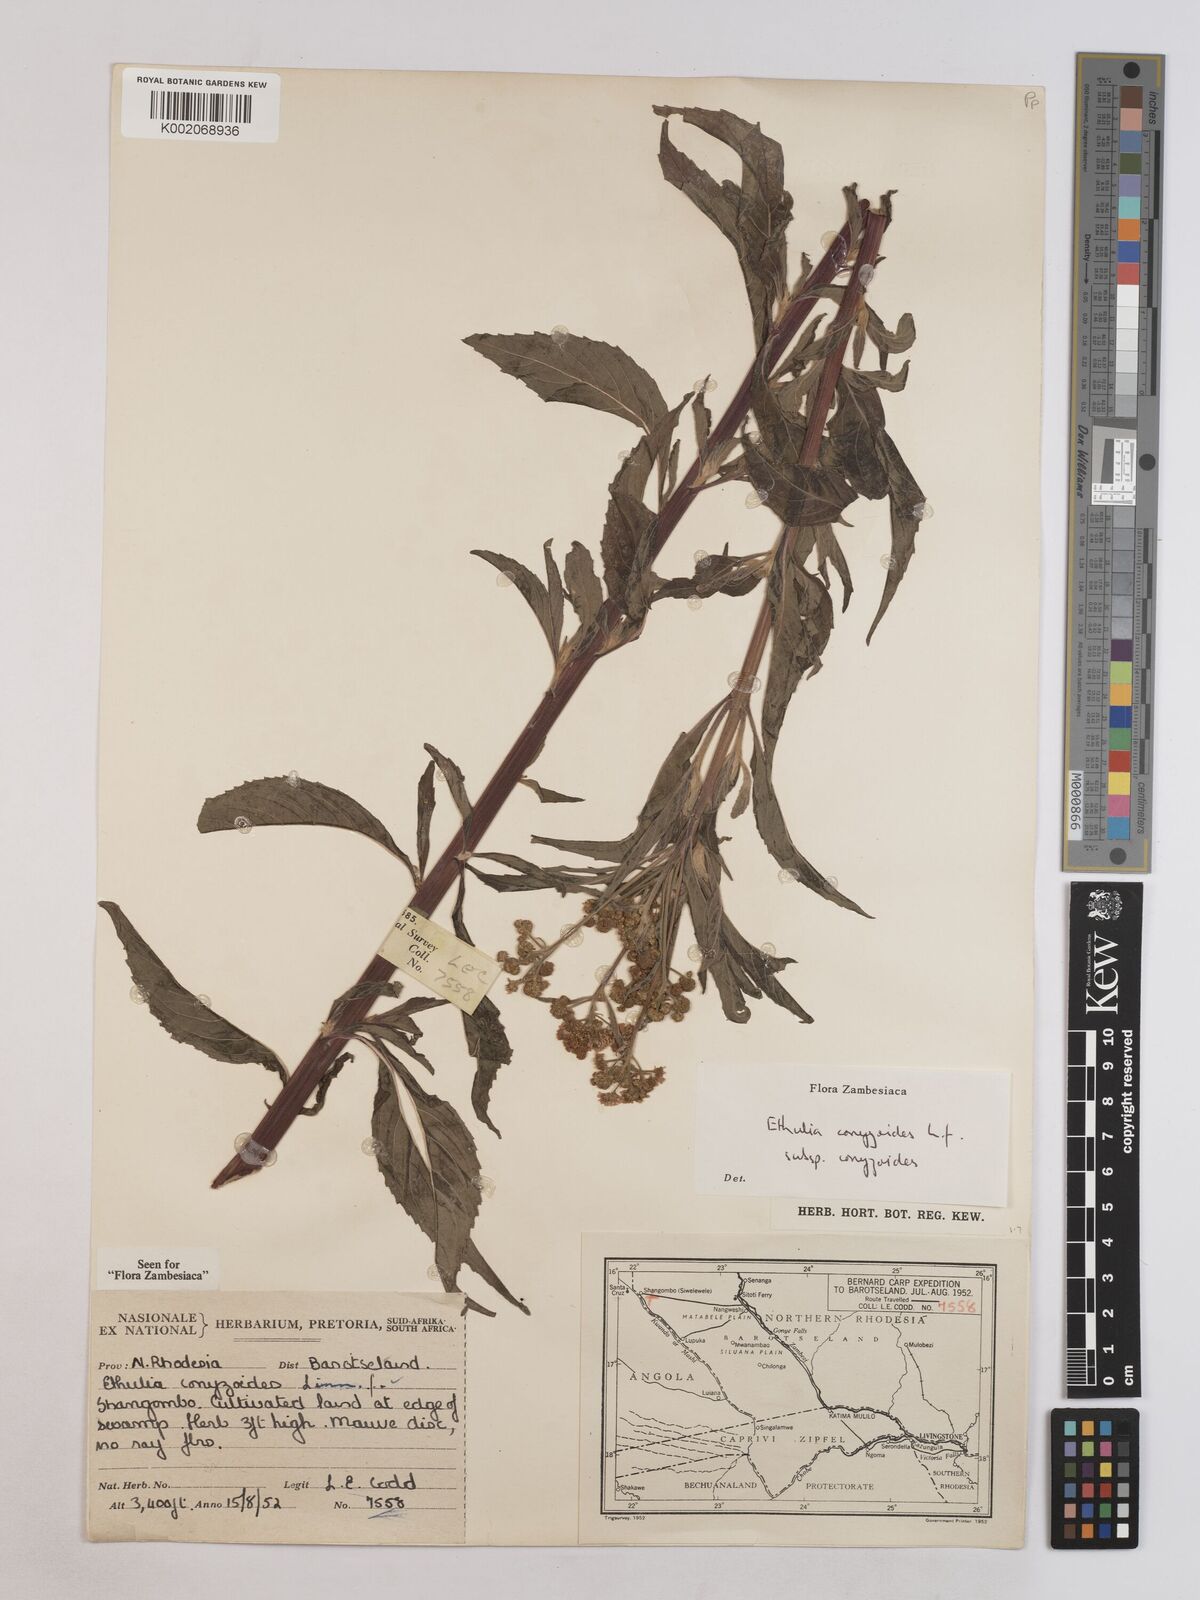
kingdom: Plantae
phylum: Tracheophyta
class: Magnoliopsida
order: Asterales
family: Asteraceae
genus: Ethulia
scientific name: Ethulia conyzoides
